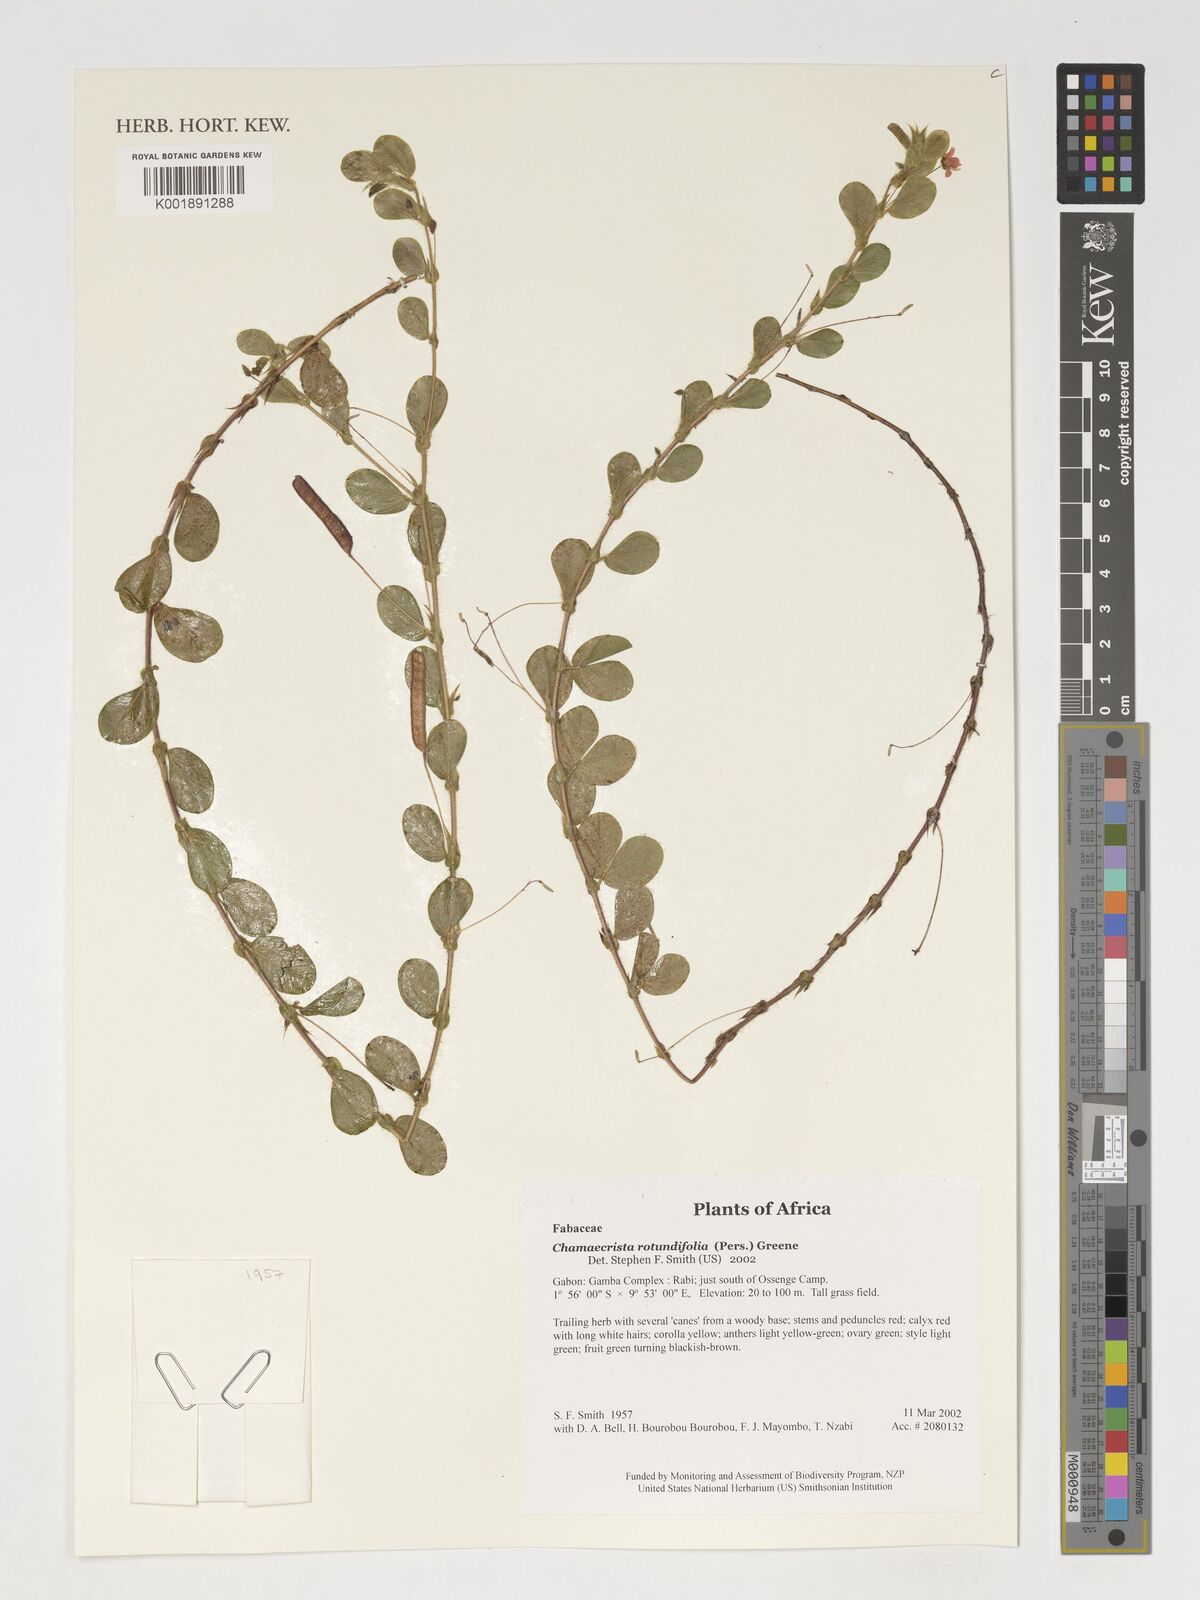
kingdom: Plantae
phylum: Tracheophyta
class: Magnoliopsida
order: Fabales
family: Fabaceae
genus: Chamaecrista
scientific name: Chamaecrista rotundifolia
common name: Round-leaf cassia
